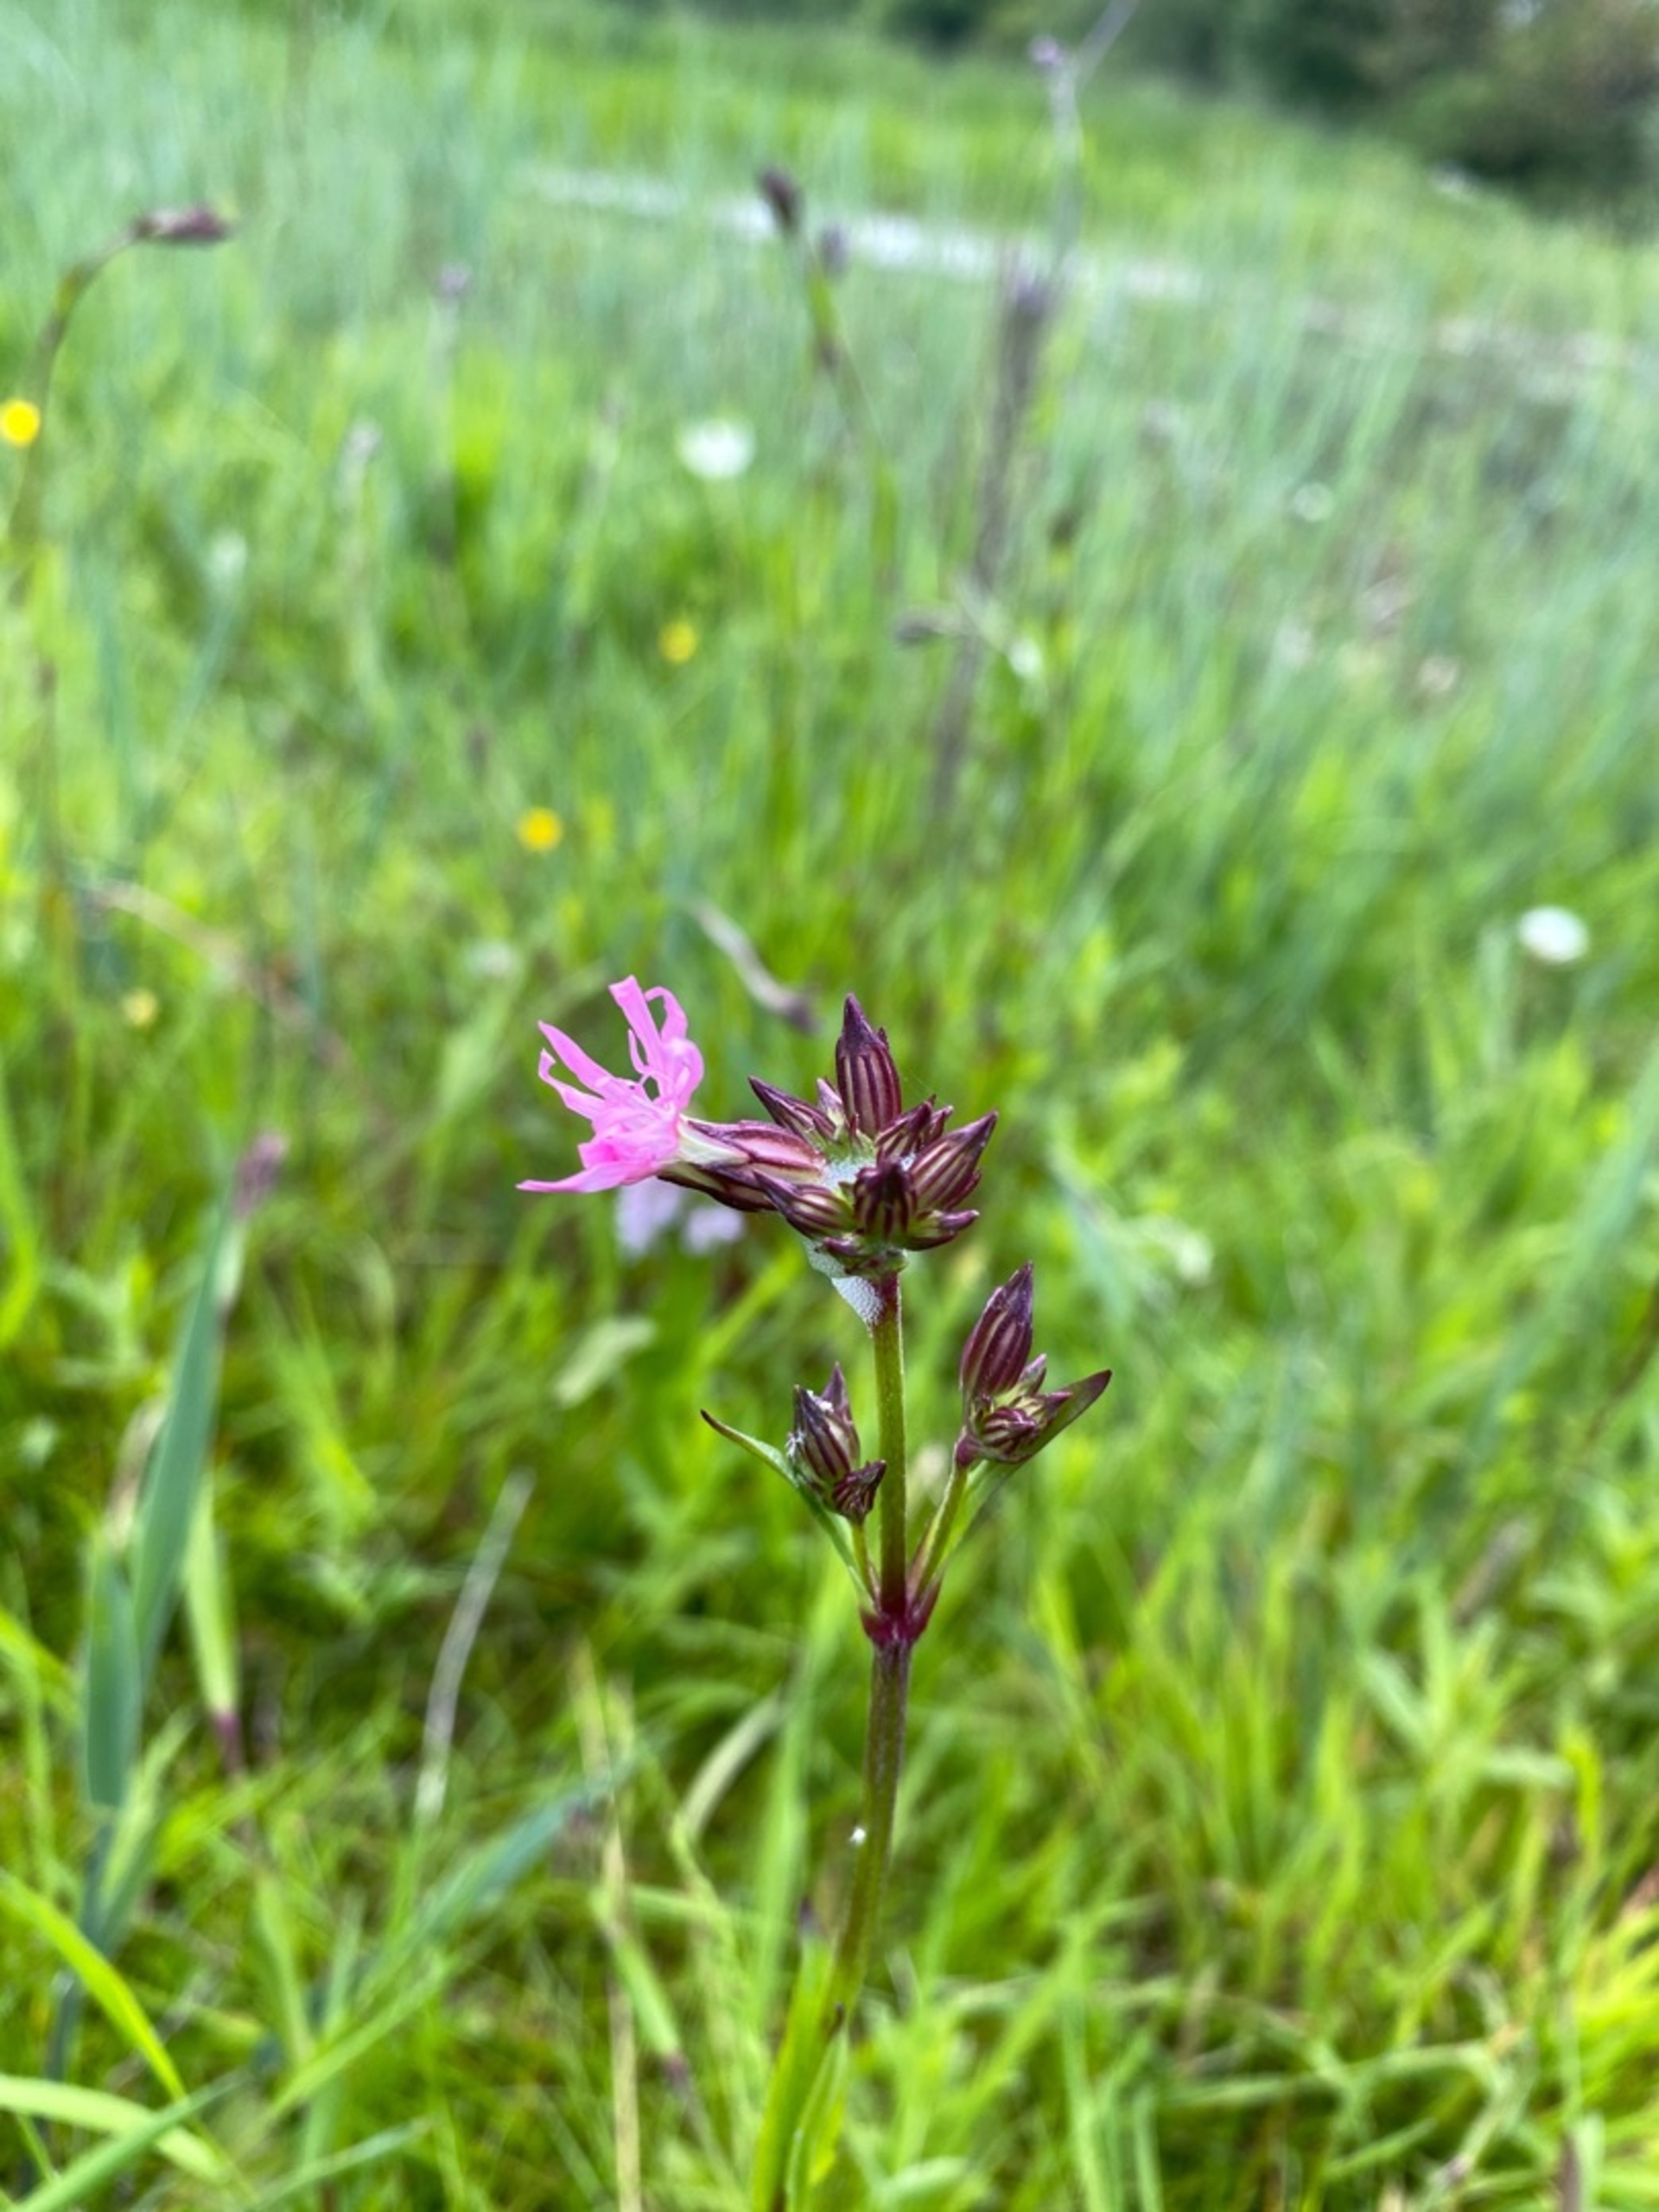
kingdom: Plantae
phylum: Tracheophyta
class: Magnoliopsida
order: Caryophyllales
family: Caryophyllaceae
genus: Silene
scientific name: Silene flos-cuculi
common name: Trævlekrone
